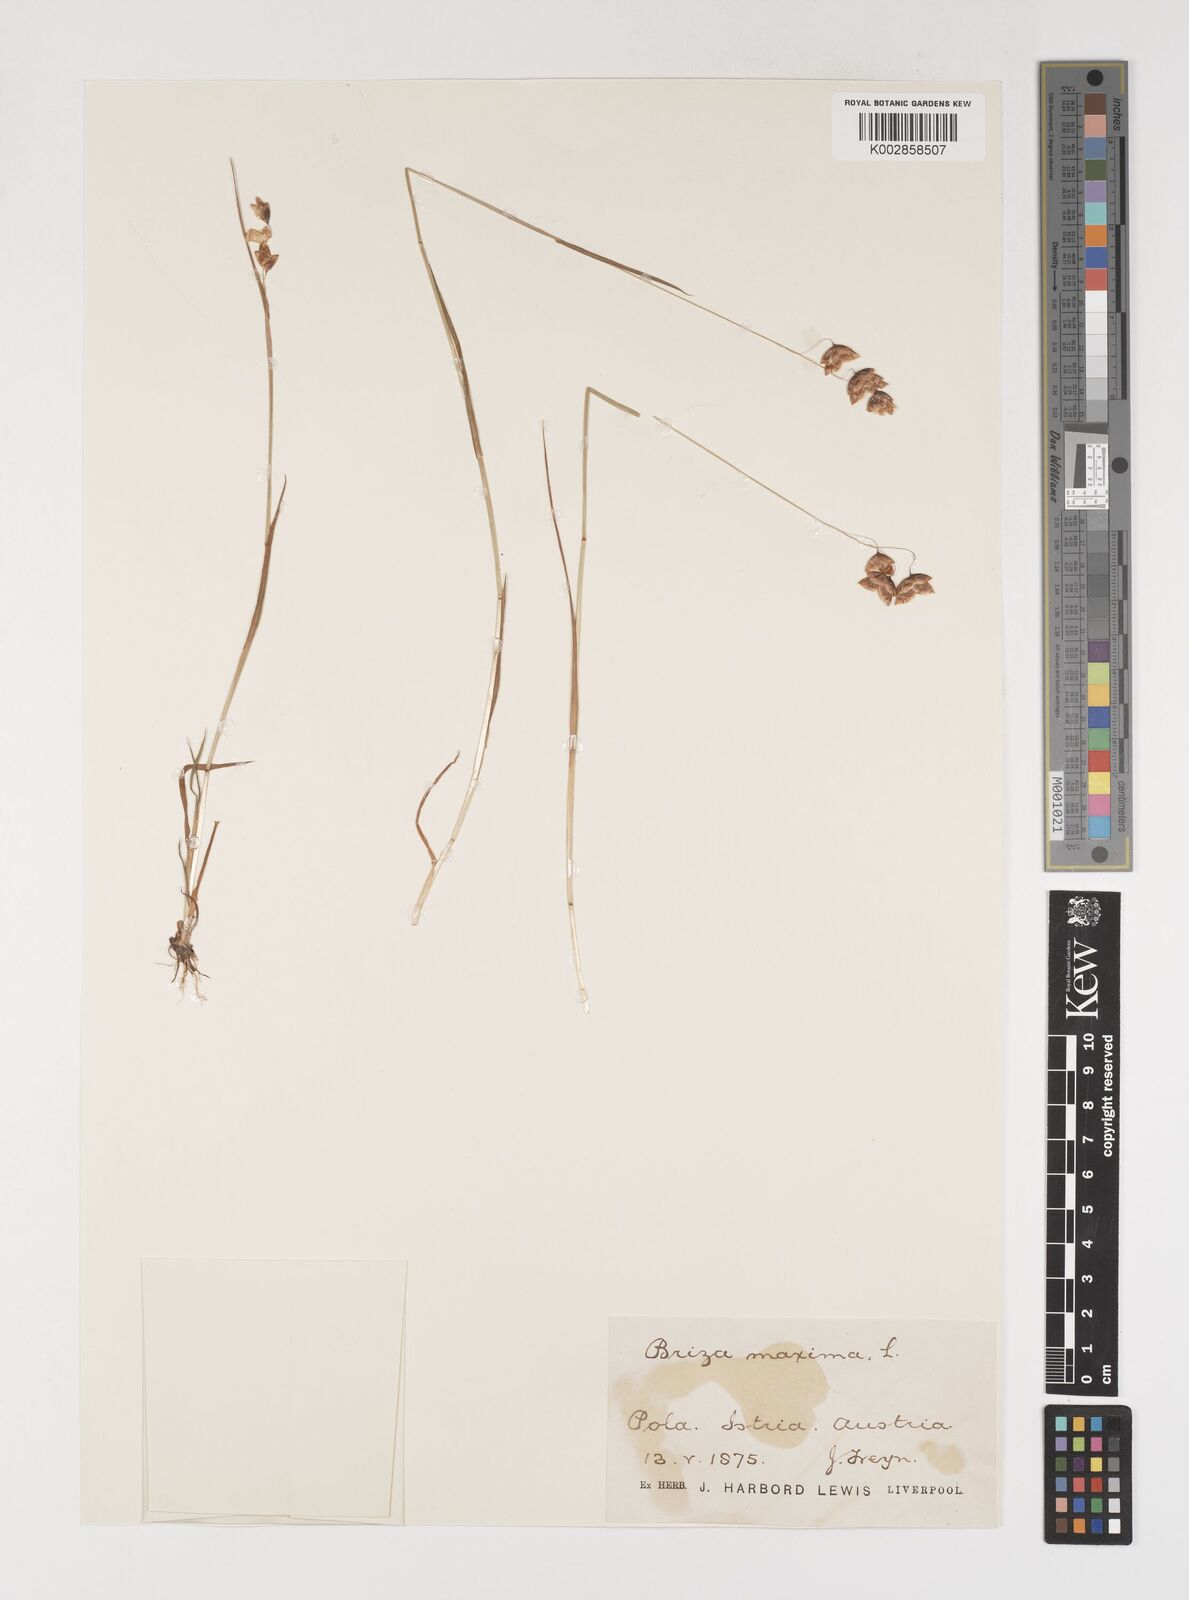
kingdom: Plantae
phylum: Tracheophyta
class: Liliopsida
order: Poales
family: Poaceae
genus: Briza
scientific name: Briza maxima
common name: Big quakinggrass
